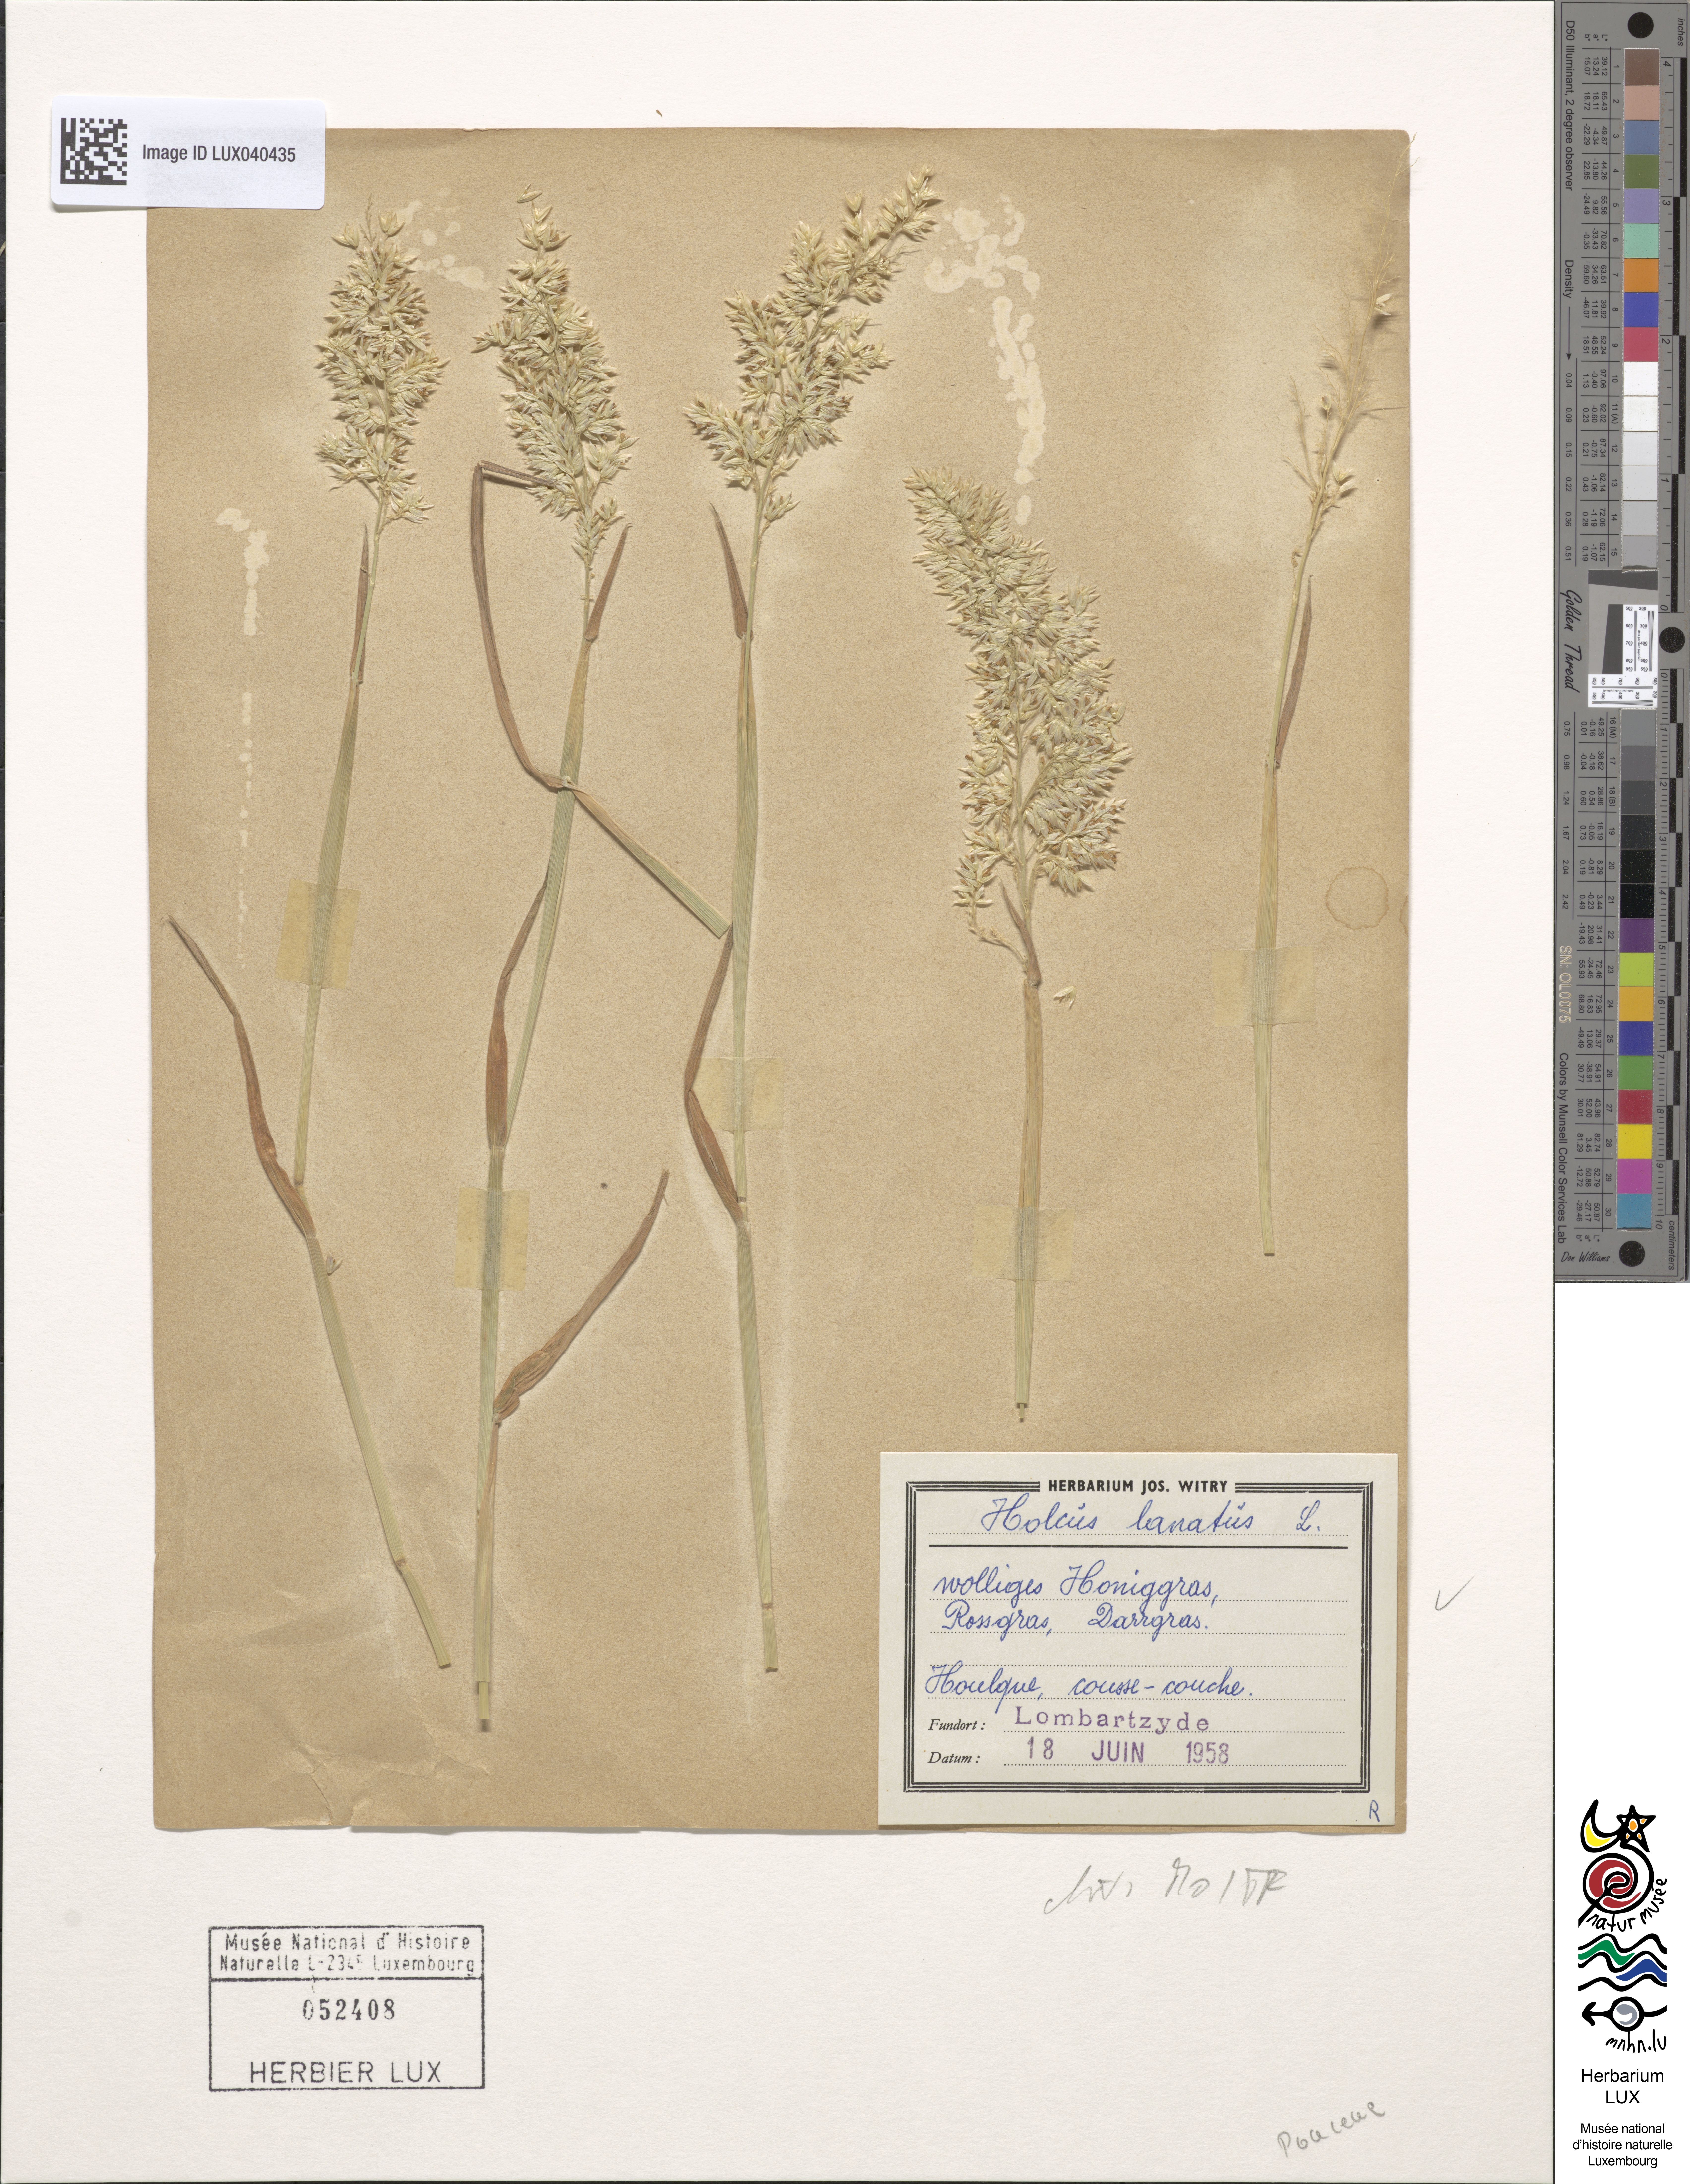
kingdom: Plantae
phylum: Tracheophyta
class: Liliopsida
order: Poales
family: Poaceae
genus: Holcus
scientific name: Holcus lanatus
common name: Yorkshire-fog
